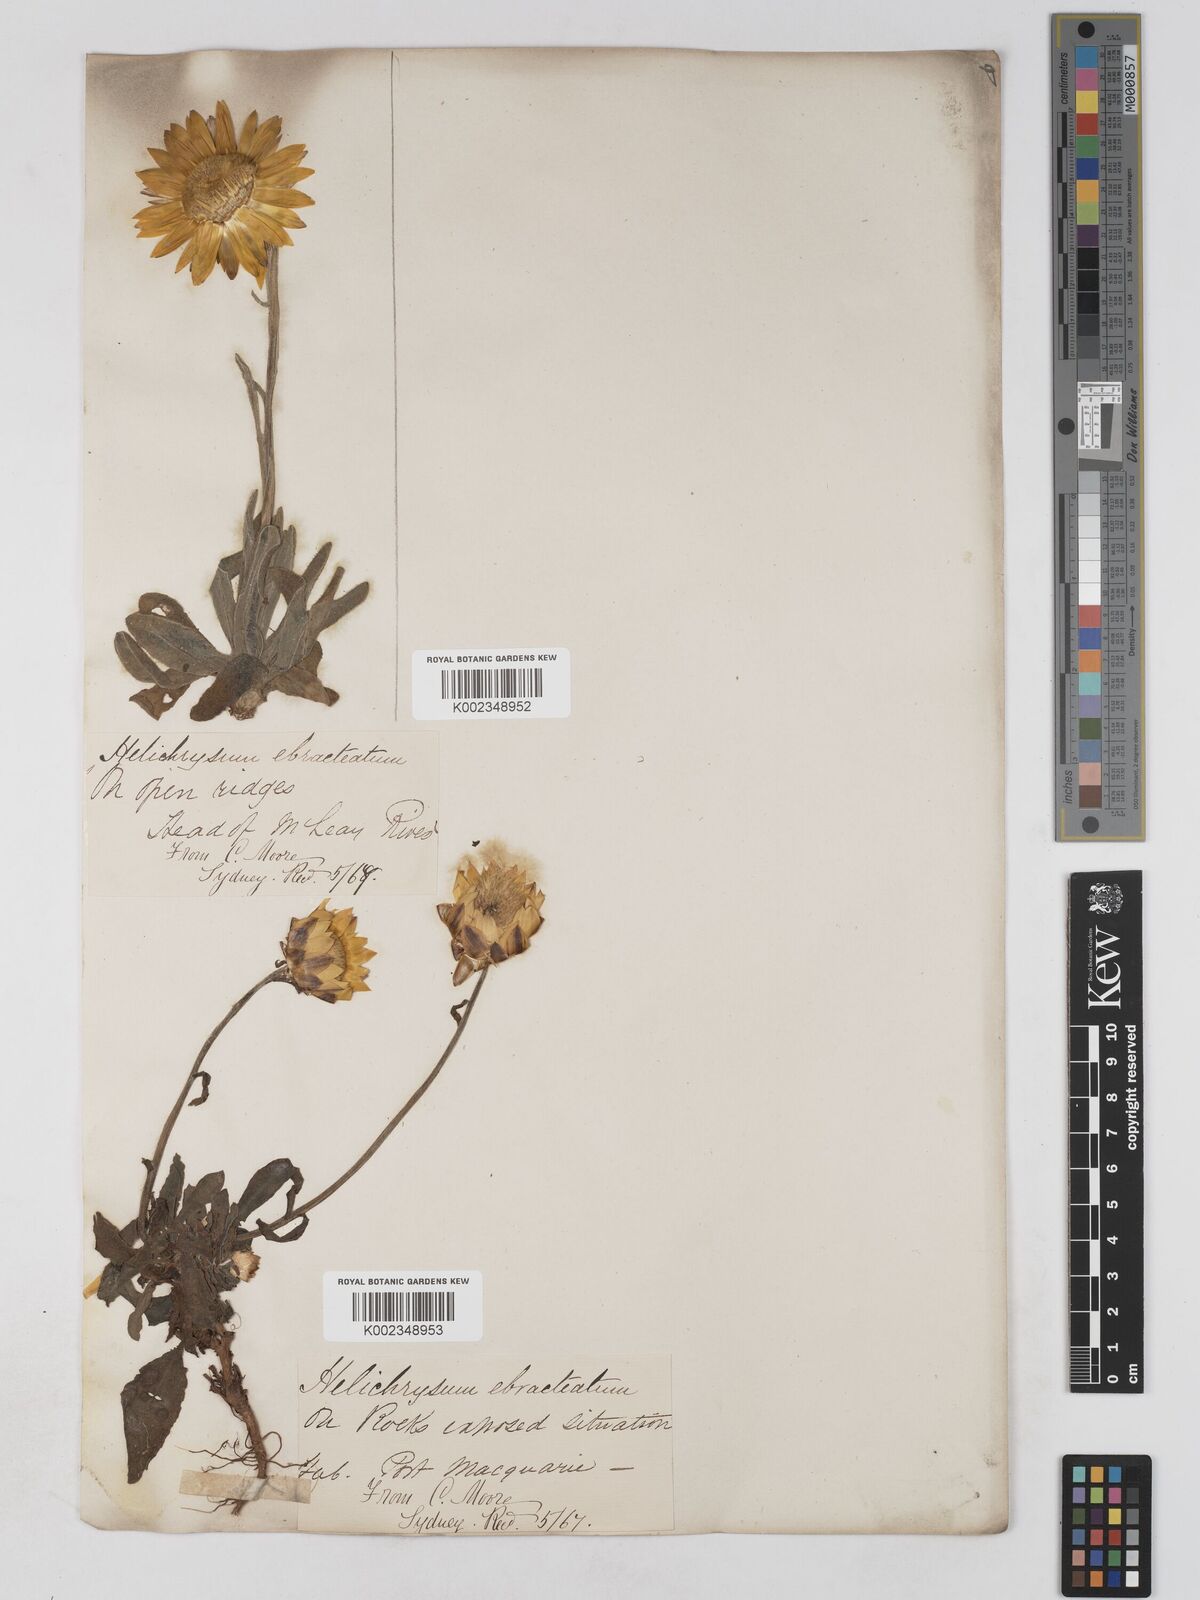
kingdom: Plantae
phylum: Tracheophyta
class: Magnoliopsida
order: Asterales
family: Asteraceae
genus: Xerochrysum
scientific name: Xerochrysum bracteatum
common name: Bracted strawflower
